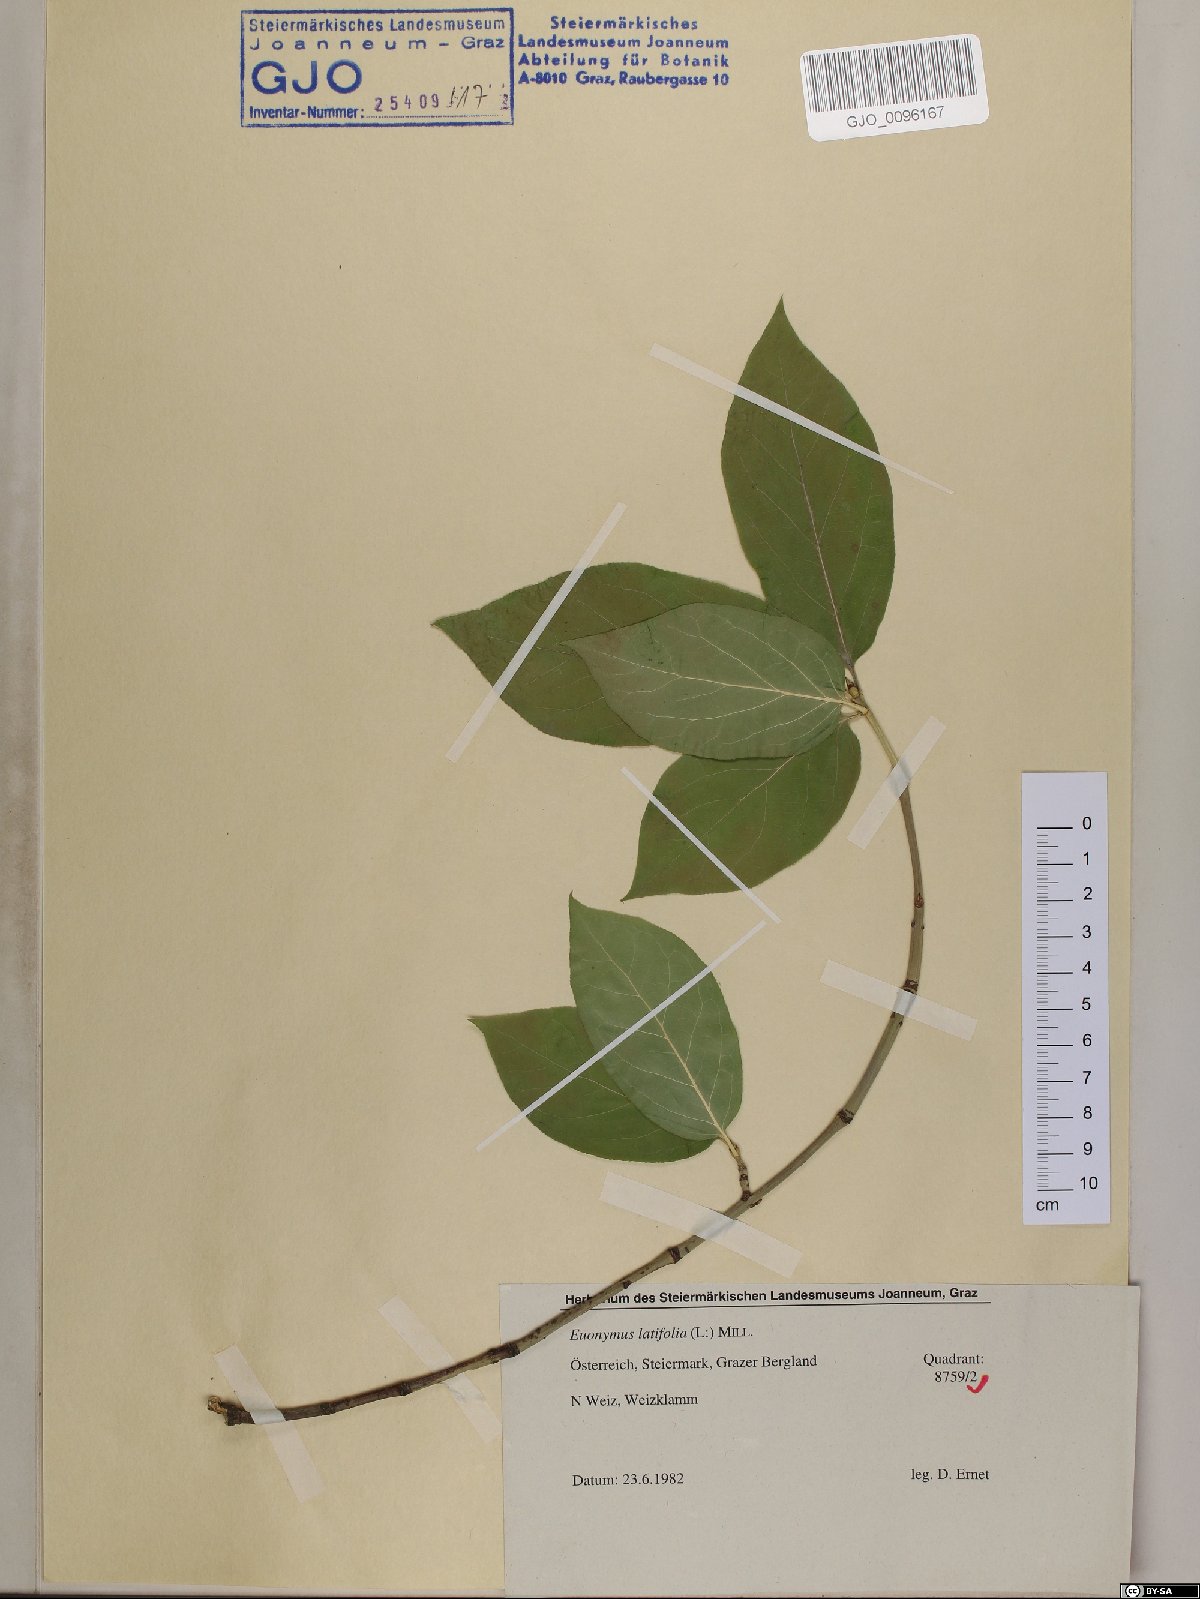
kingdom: Plantae
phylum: Tracheophyta
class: Magnoliopsida
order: Celastrales
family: Celastraceae
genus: Euonymus
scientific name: Euonymus latifolius
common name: Large-leaved spindle
